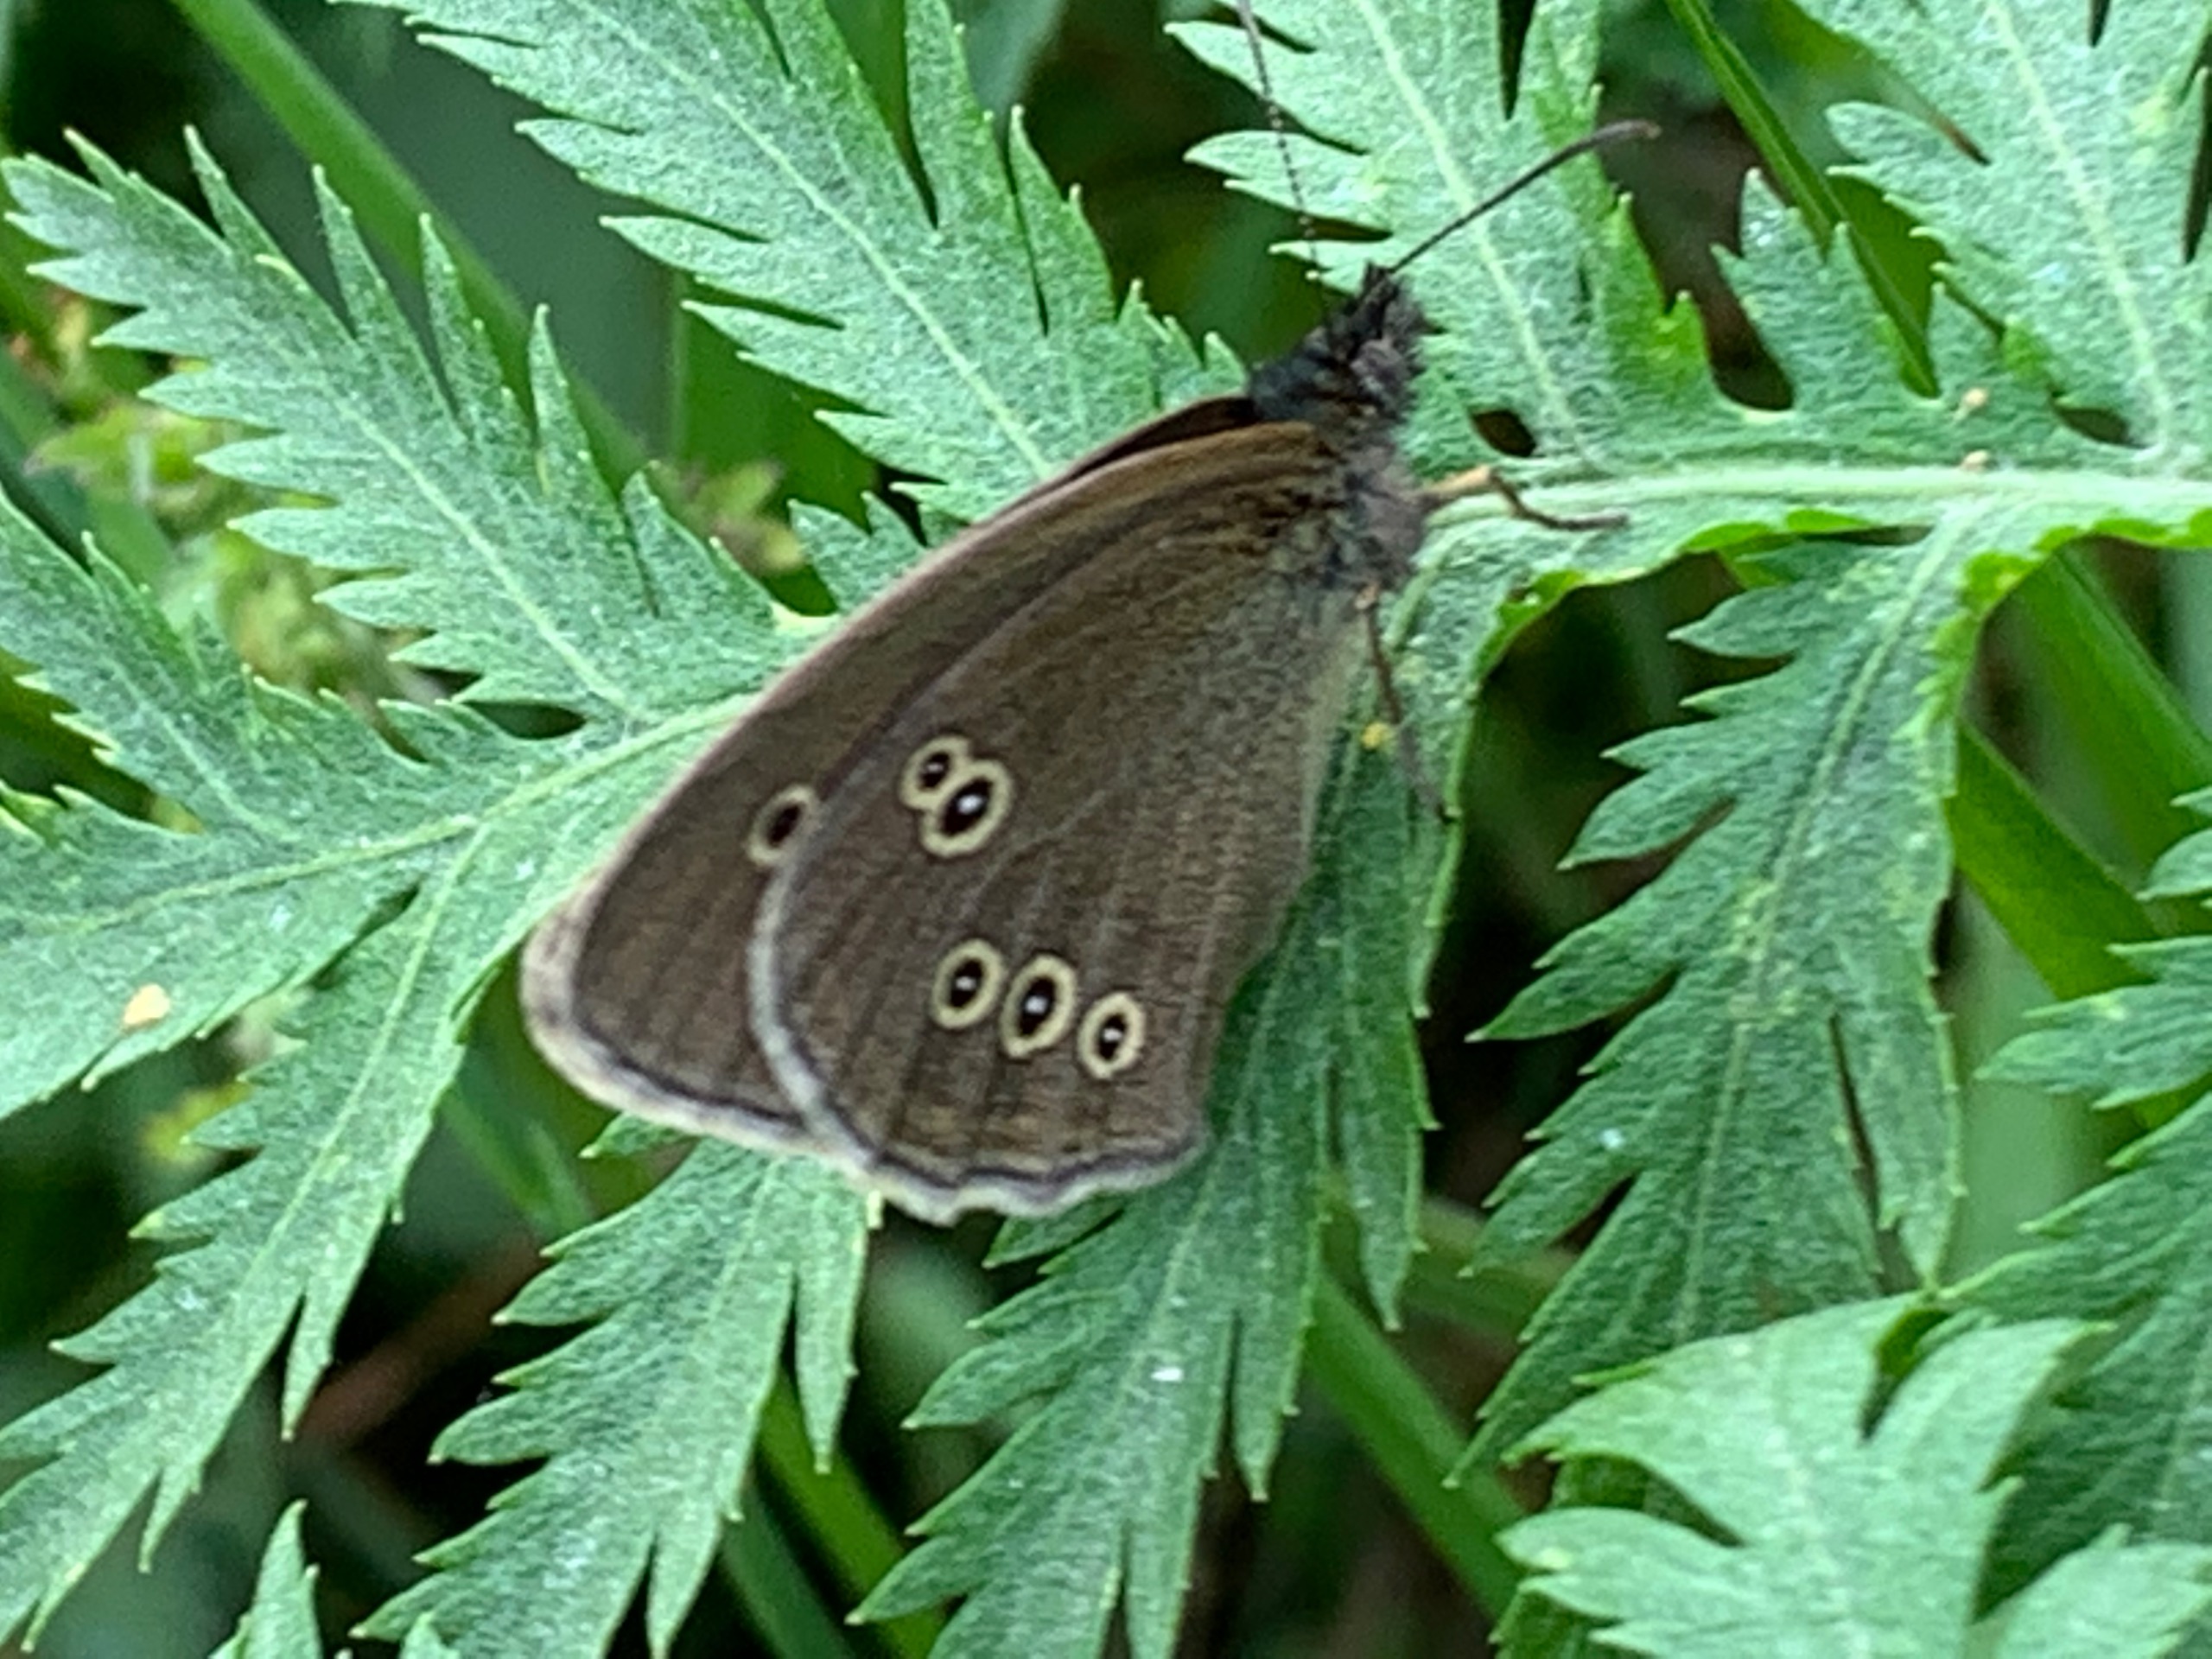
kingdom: Animalia
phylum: Arthropoda
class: Insecta
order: Lepidoptera
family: Nymphalidae
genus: Aphantopus
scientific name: Aphantopus hyperantus
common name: Engrandøje
